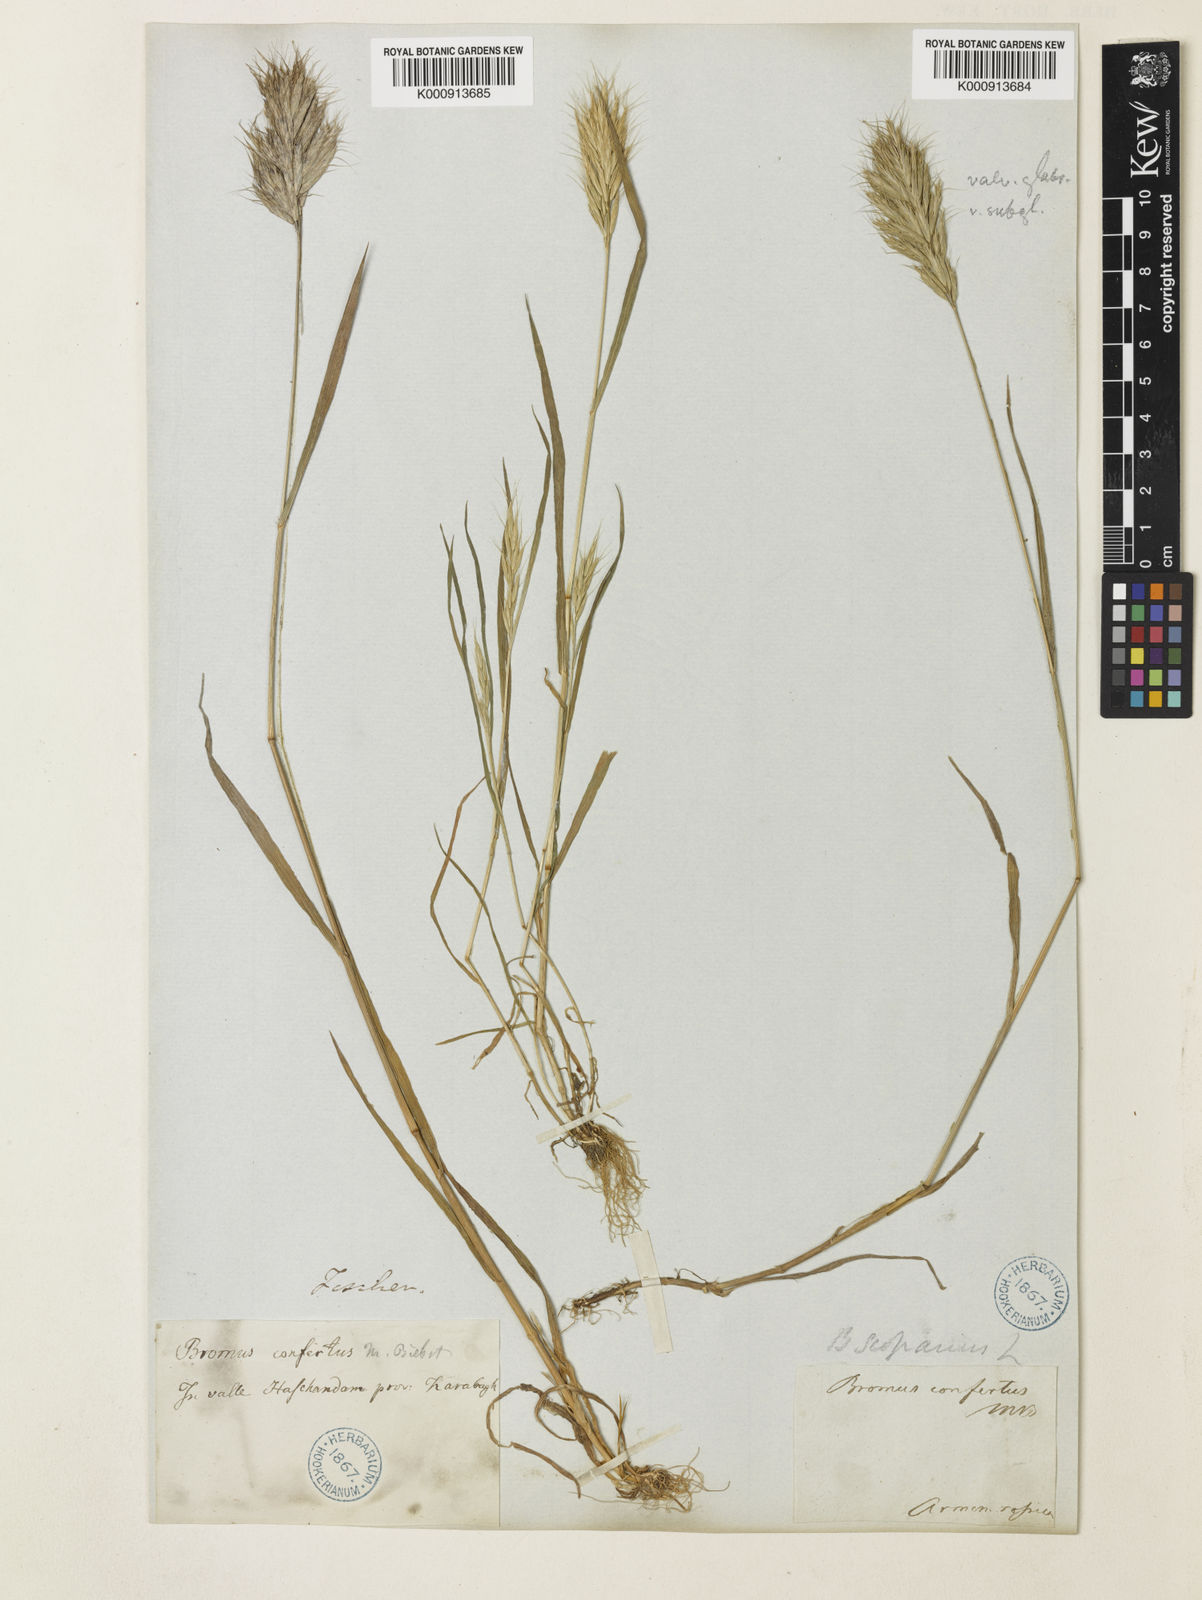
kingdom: Plantae
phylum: Tracheophyta
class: Liliopsida
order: Poales
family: Poaceae
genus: Bromus
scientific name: Bromus scoparius
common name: Broom brome
